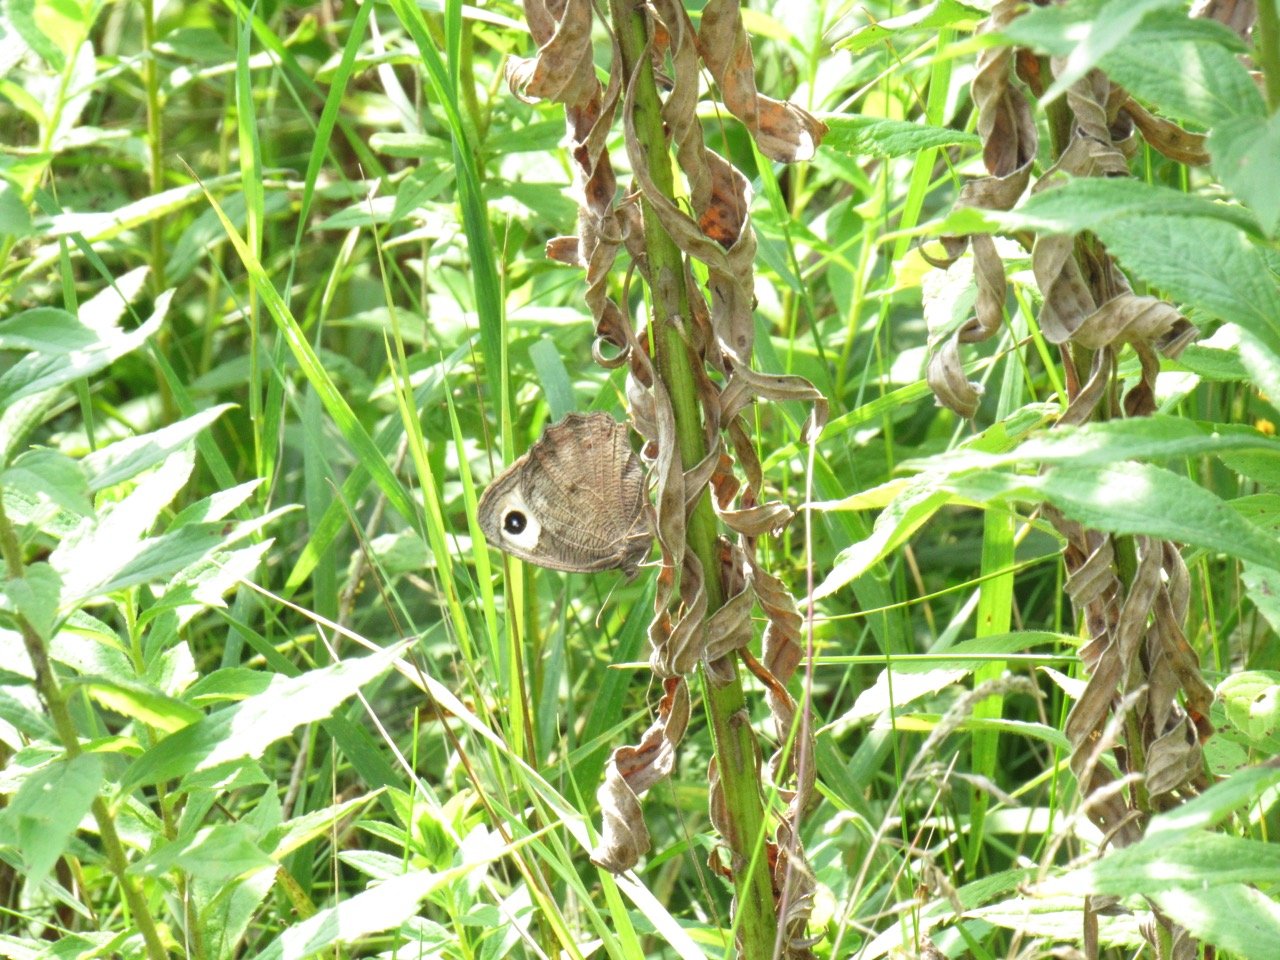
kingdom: Animalia
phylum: Arthropoda
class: Insecta
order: Lepidoptera
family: Nymphalidae
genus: Cercyonis
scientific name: Cercyonis pegala
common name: Common Wood-Nymph
